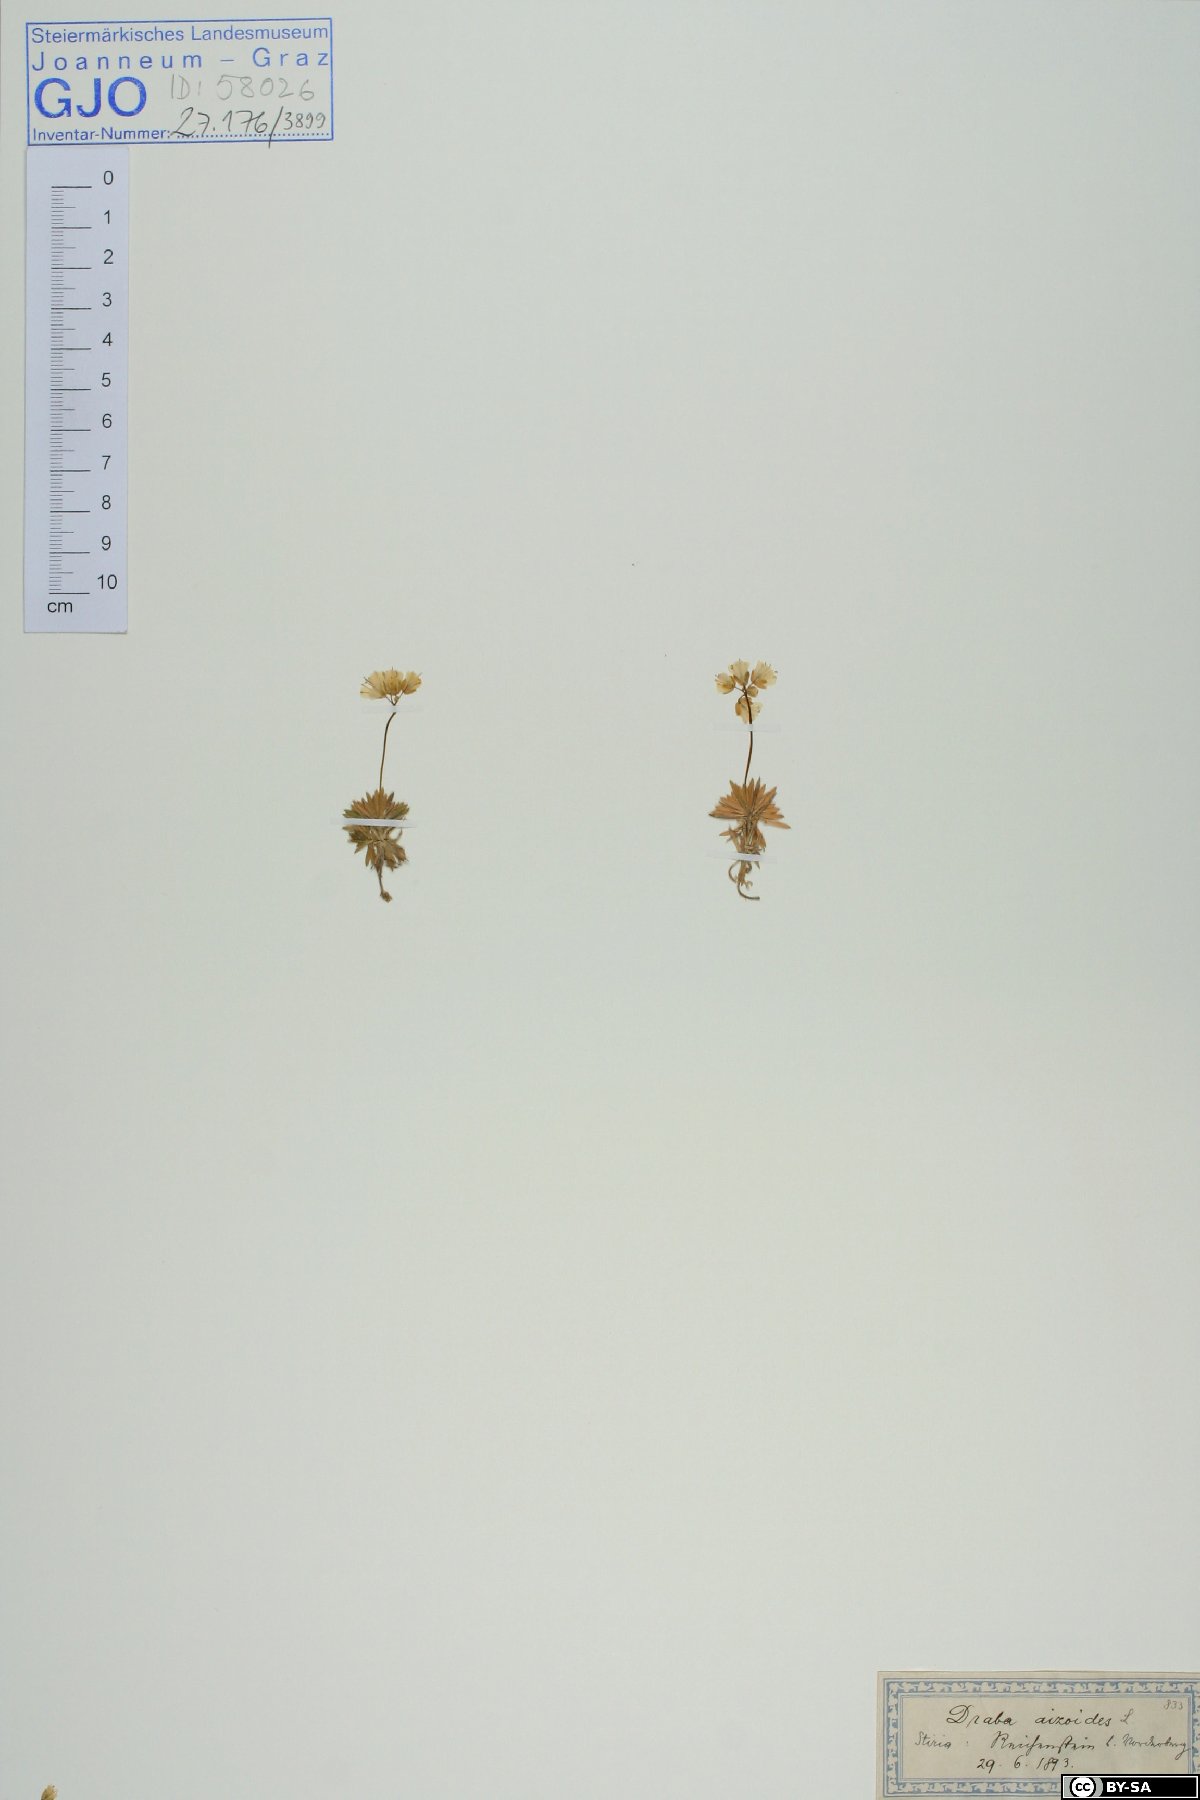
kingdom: Plantae
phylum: Tracheophyta
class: Magnoliopsida
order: Brassicales
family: Brassicaceae
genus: Draba
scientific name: Draba aizoides
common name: Yellow whitlowgrass
